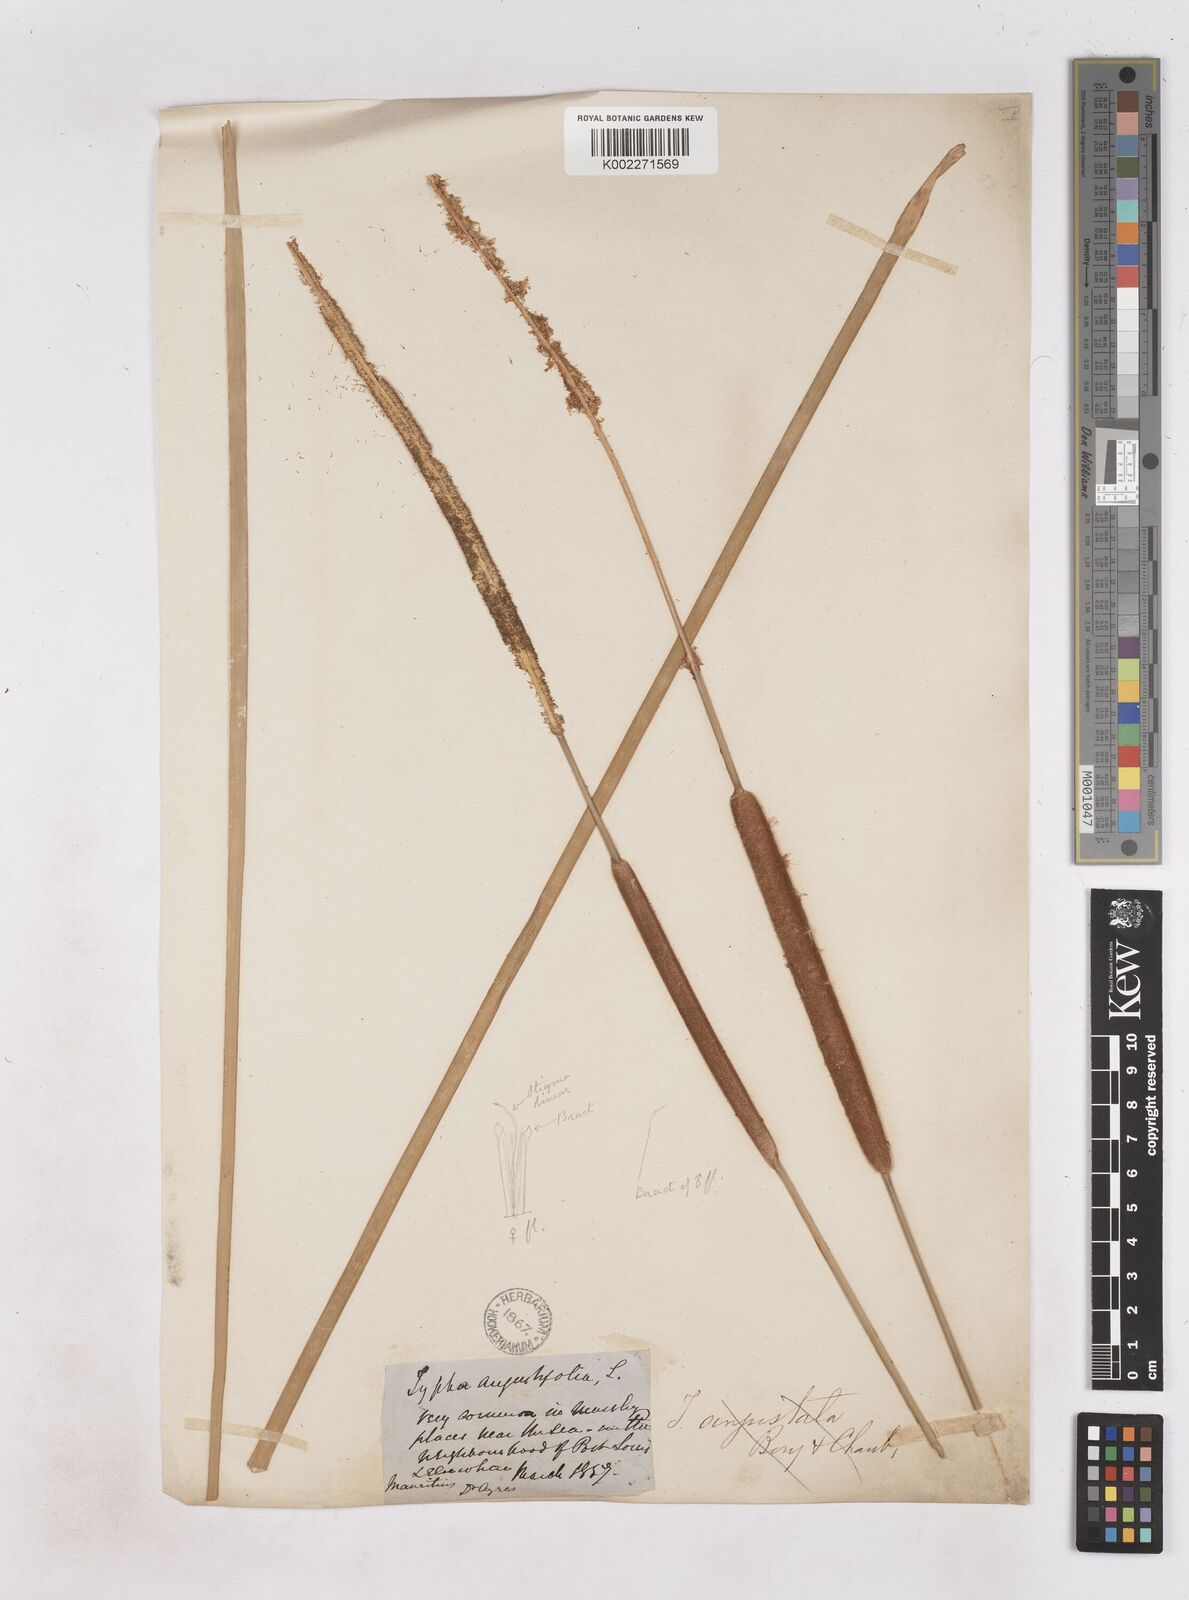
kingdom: Plantae
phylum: Tracheophyta
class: Liliopsida
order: Poales
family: Typhaceae
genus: Typha
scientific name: Typha angustifolia
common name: Lesser bulrush
